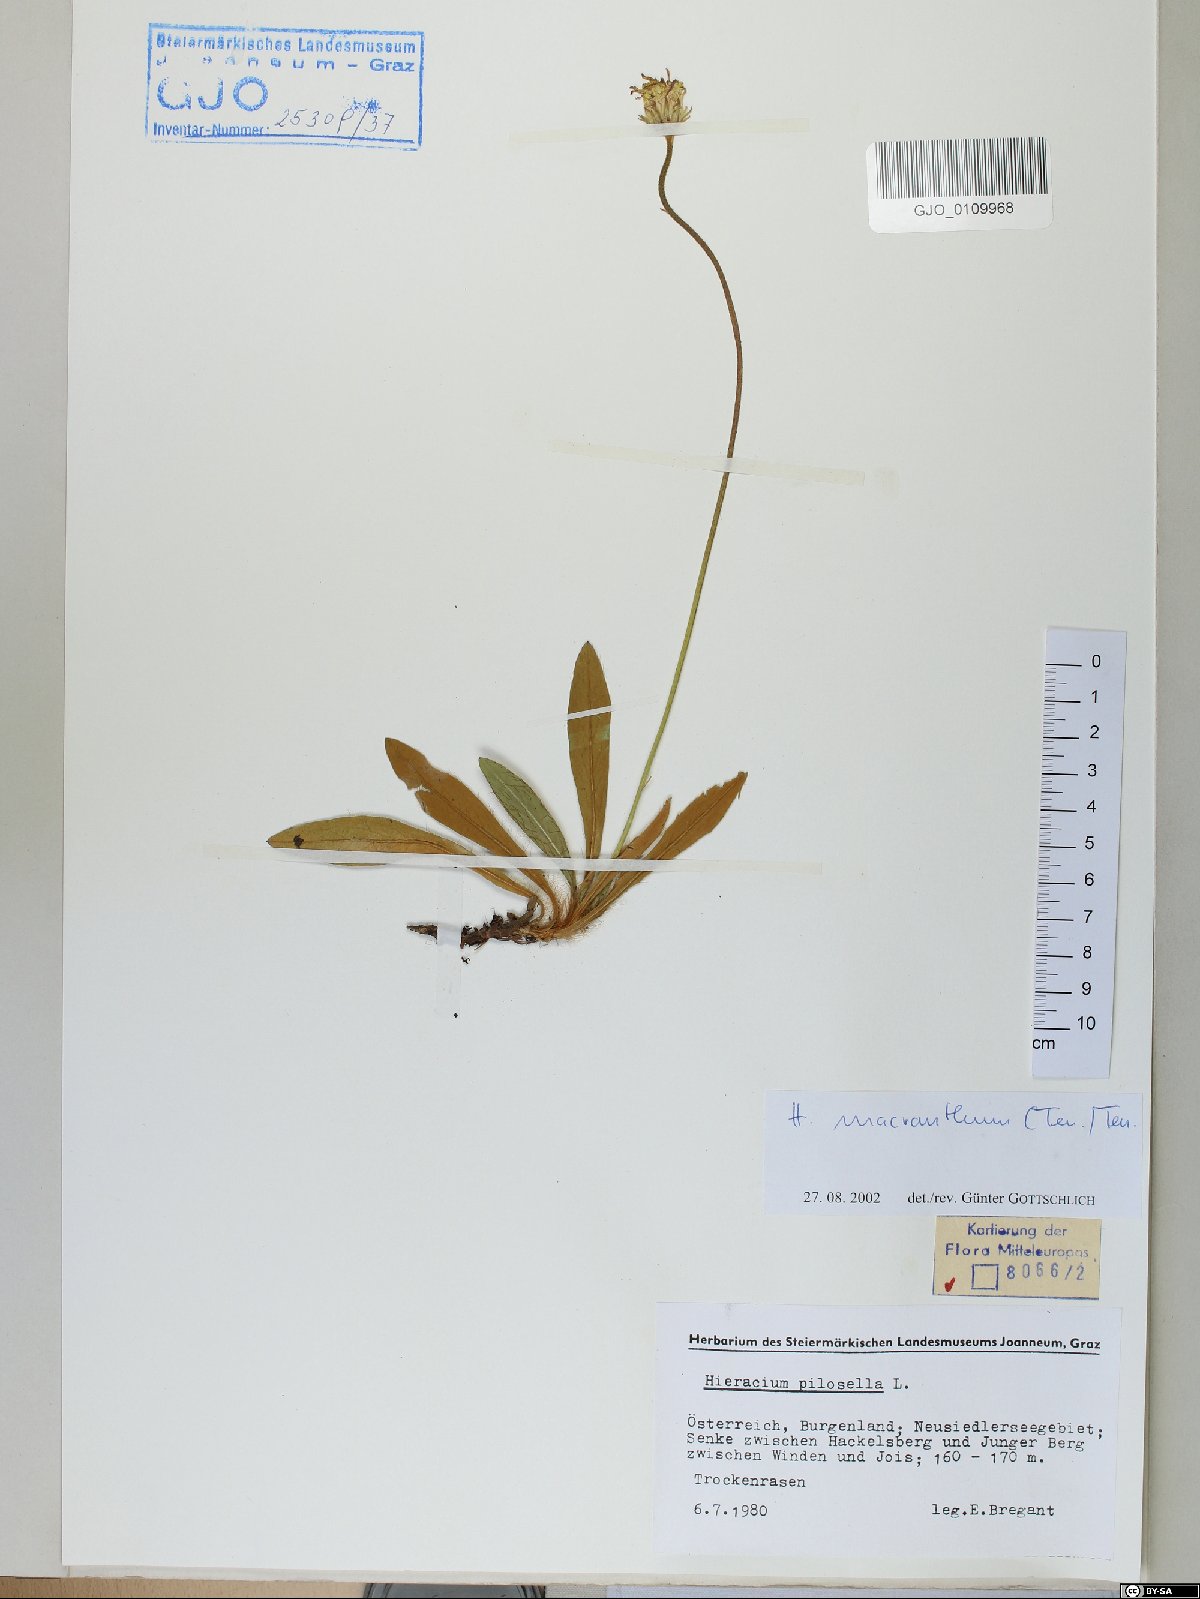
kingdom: Plantae
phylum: Tracheophyta
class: Magnoliopsida
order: Asterales
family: Asteraceae
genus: Pilosella
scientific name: Pilosella hoppeana
